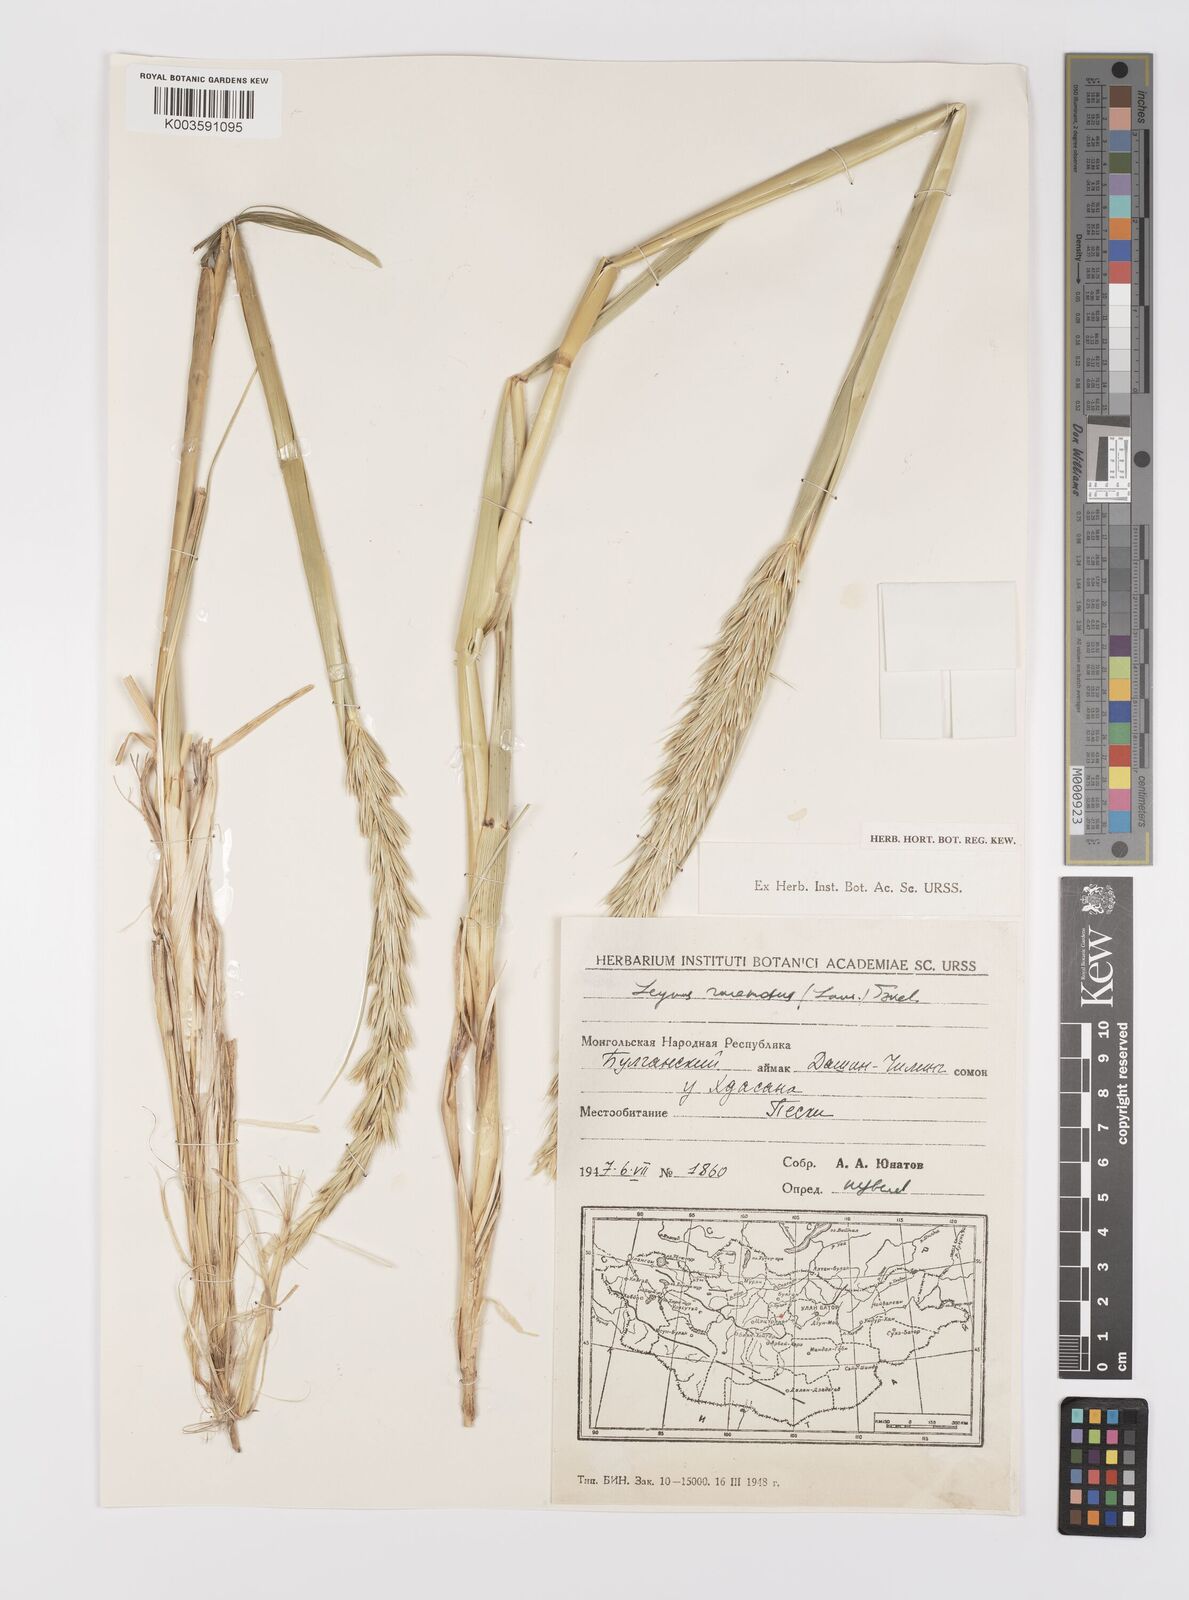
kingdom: Plantae
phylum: Tracheophyta
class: Liliopsida
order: Poales
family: Poaceae
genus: Leymus
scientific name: Leymus racemosus
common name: Mammoth wildrye
